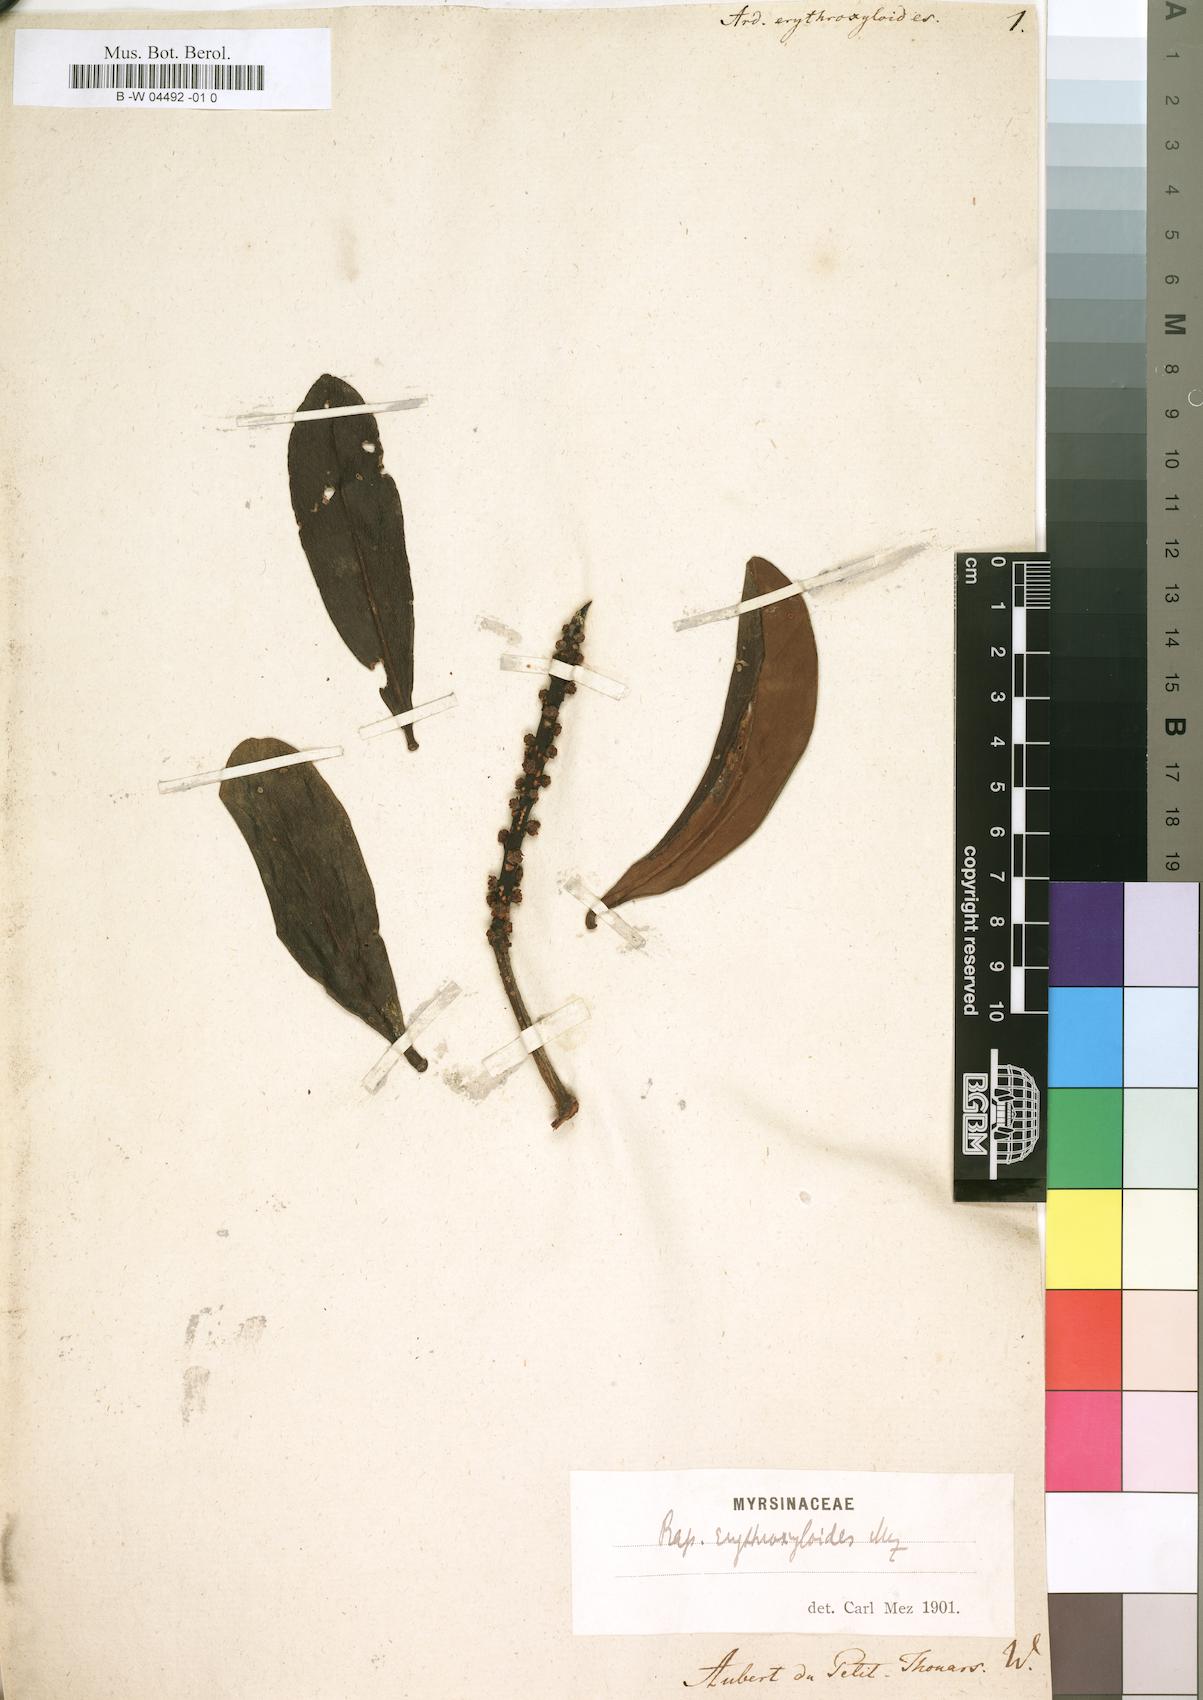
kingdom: Plantae
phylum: Tracheophyta
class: Magnoliopsida
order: Ericales
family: Primulaceae
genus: Myrsine
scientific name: Myrsine madagascariensis
